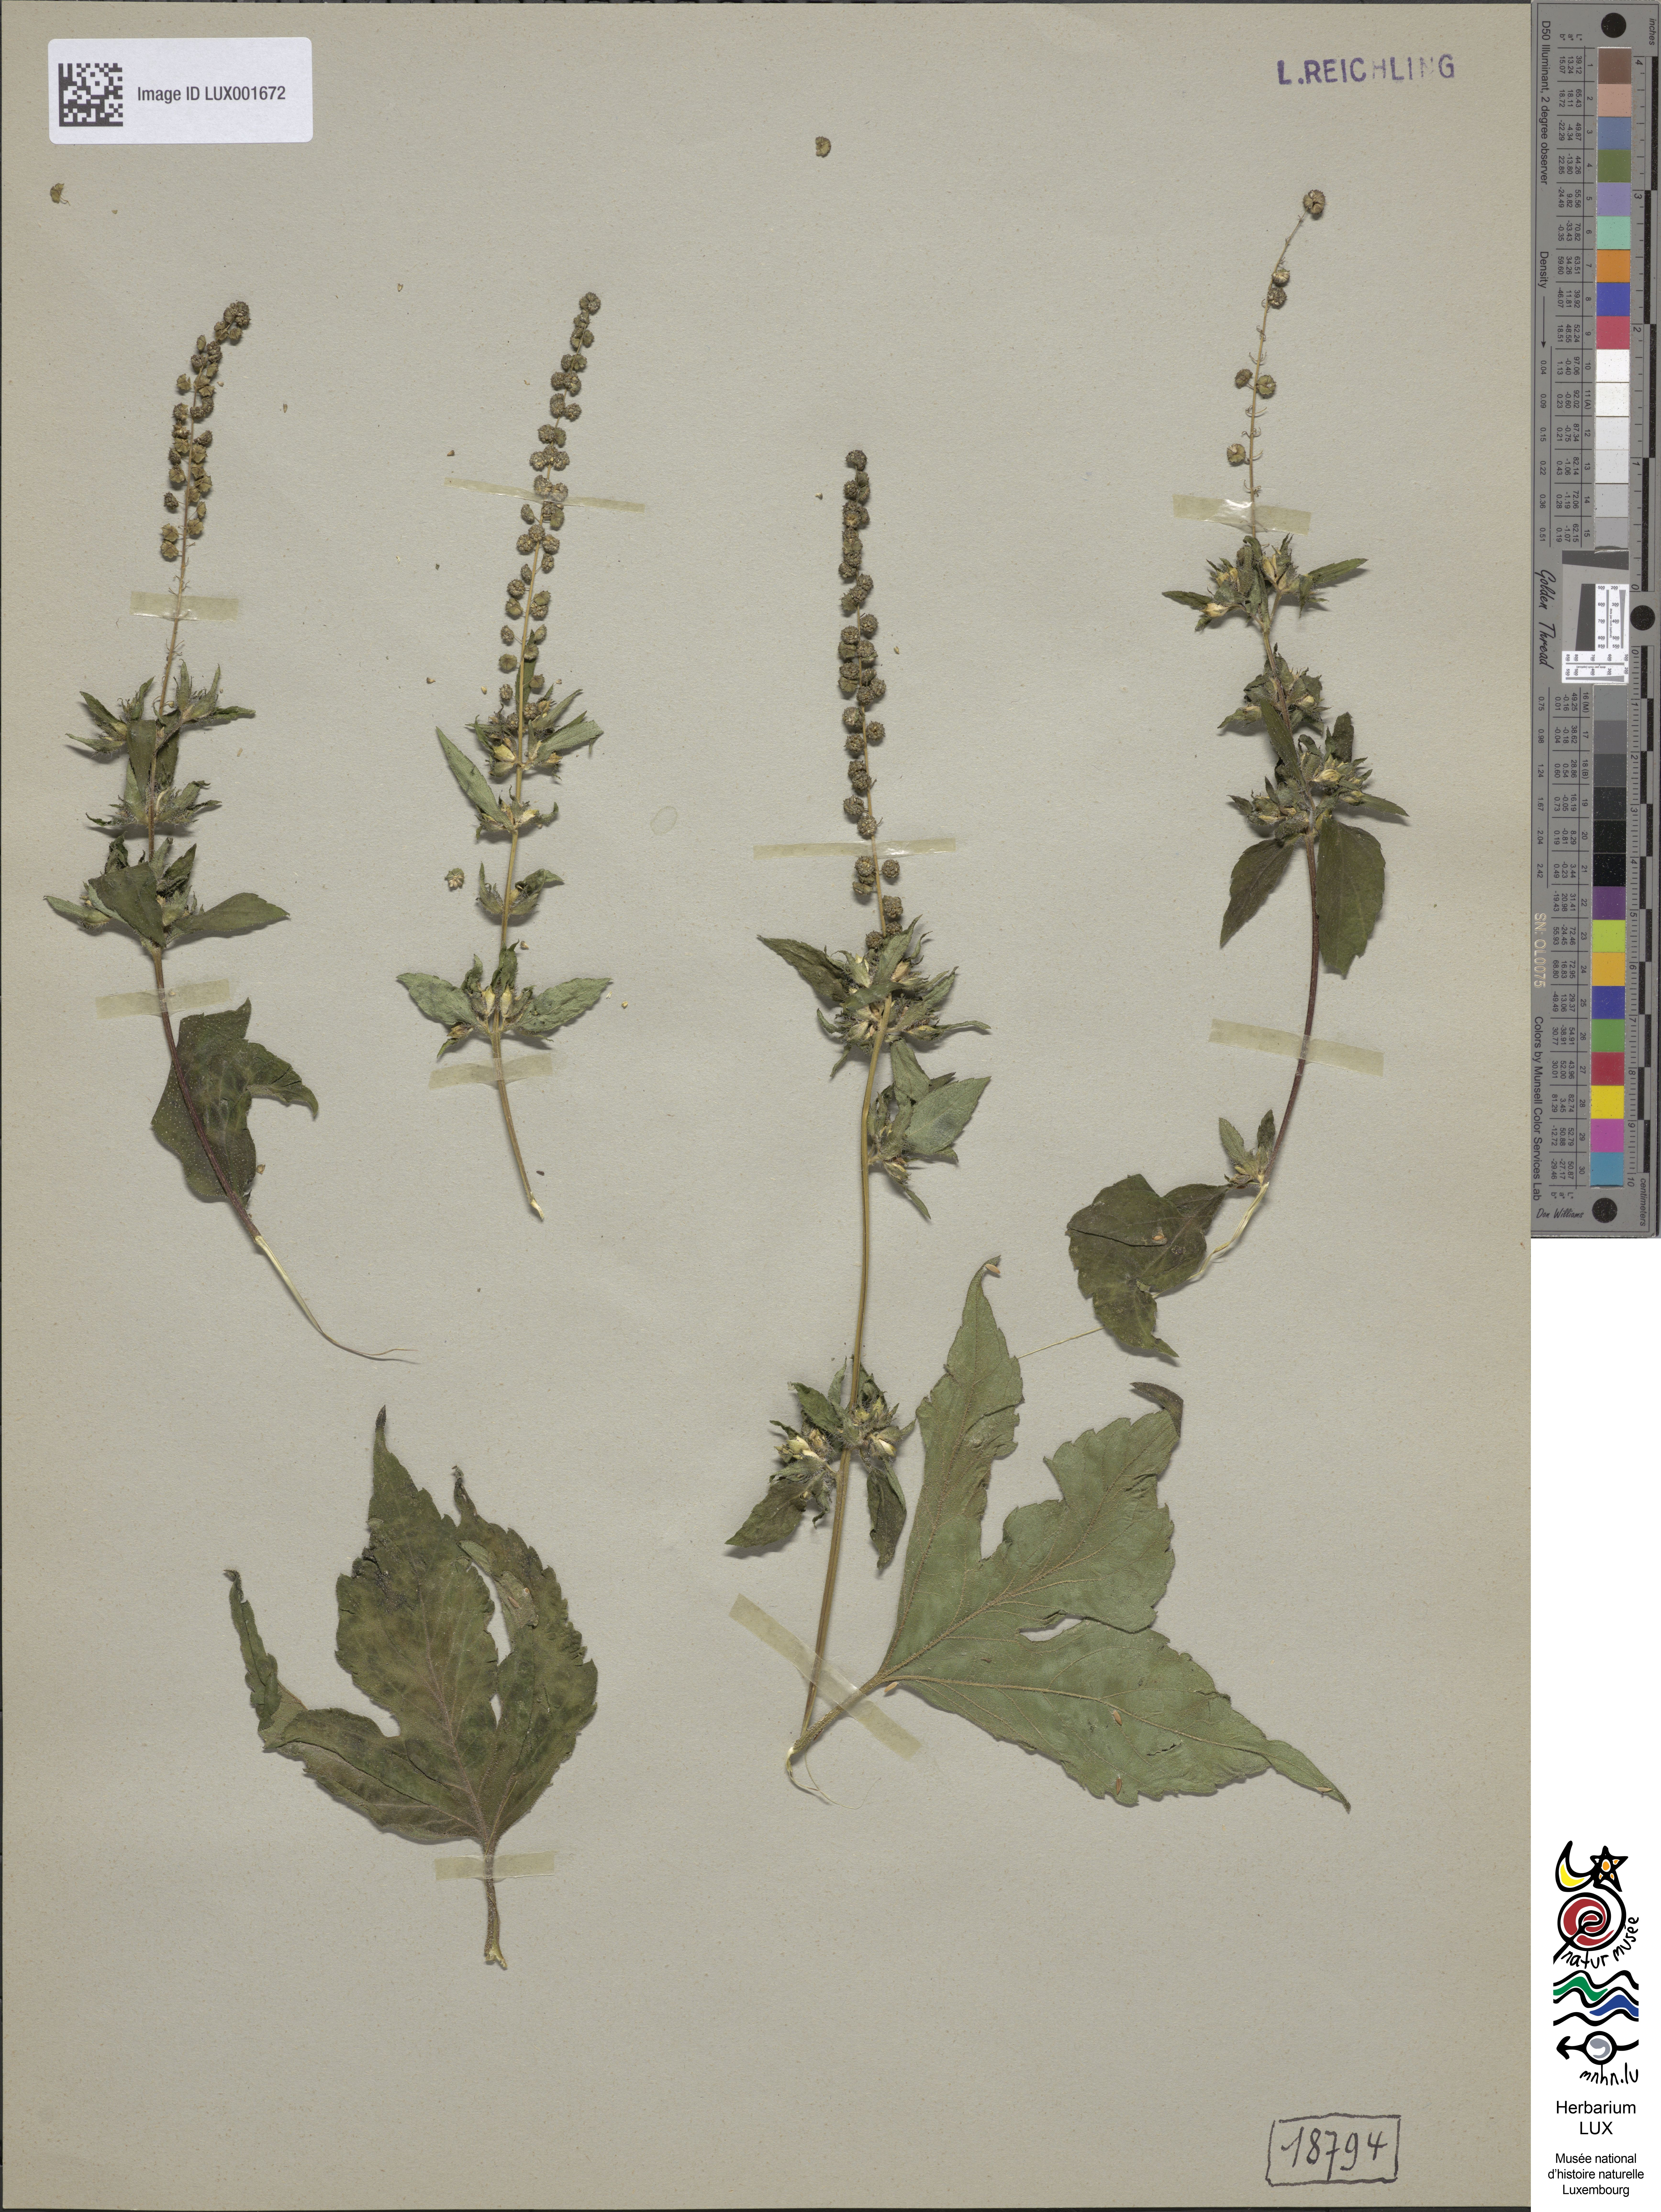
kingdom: Plantae
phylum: Tracheophyta
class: Magnoliopsida
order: Asterales
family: Asteraceae
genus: Ambrosia
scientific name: Ambrosia trifida
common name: Giant ragweed
